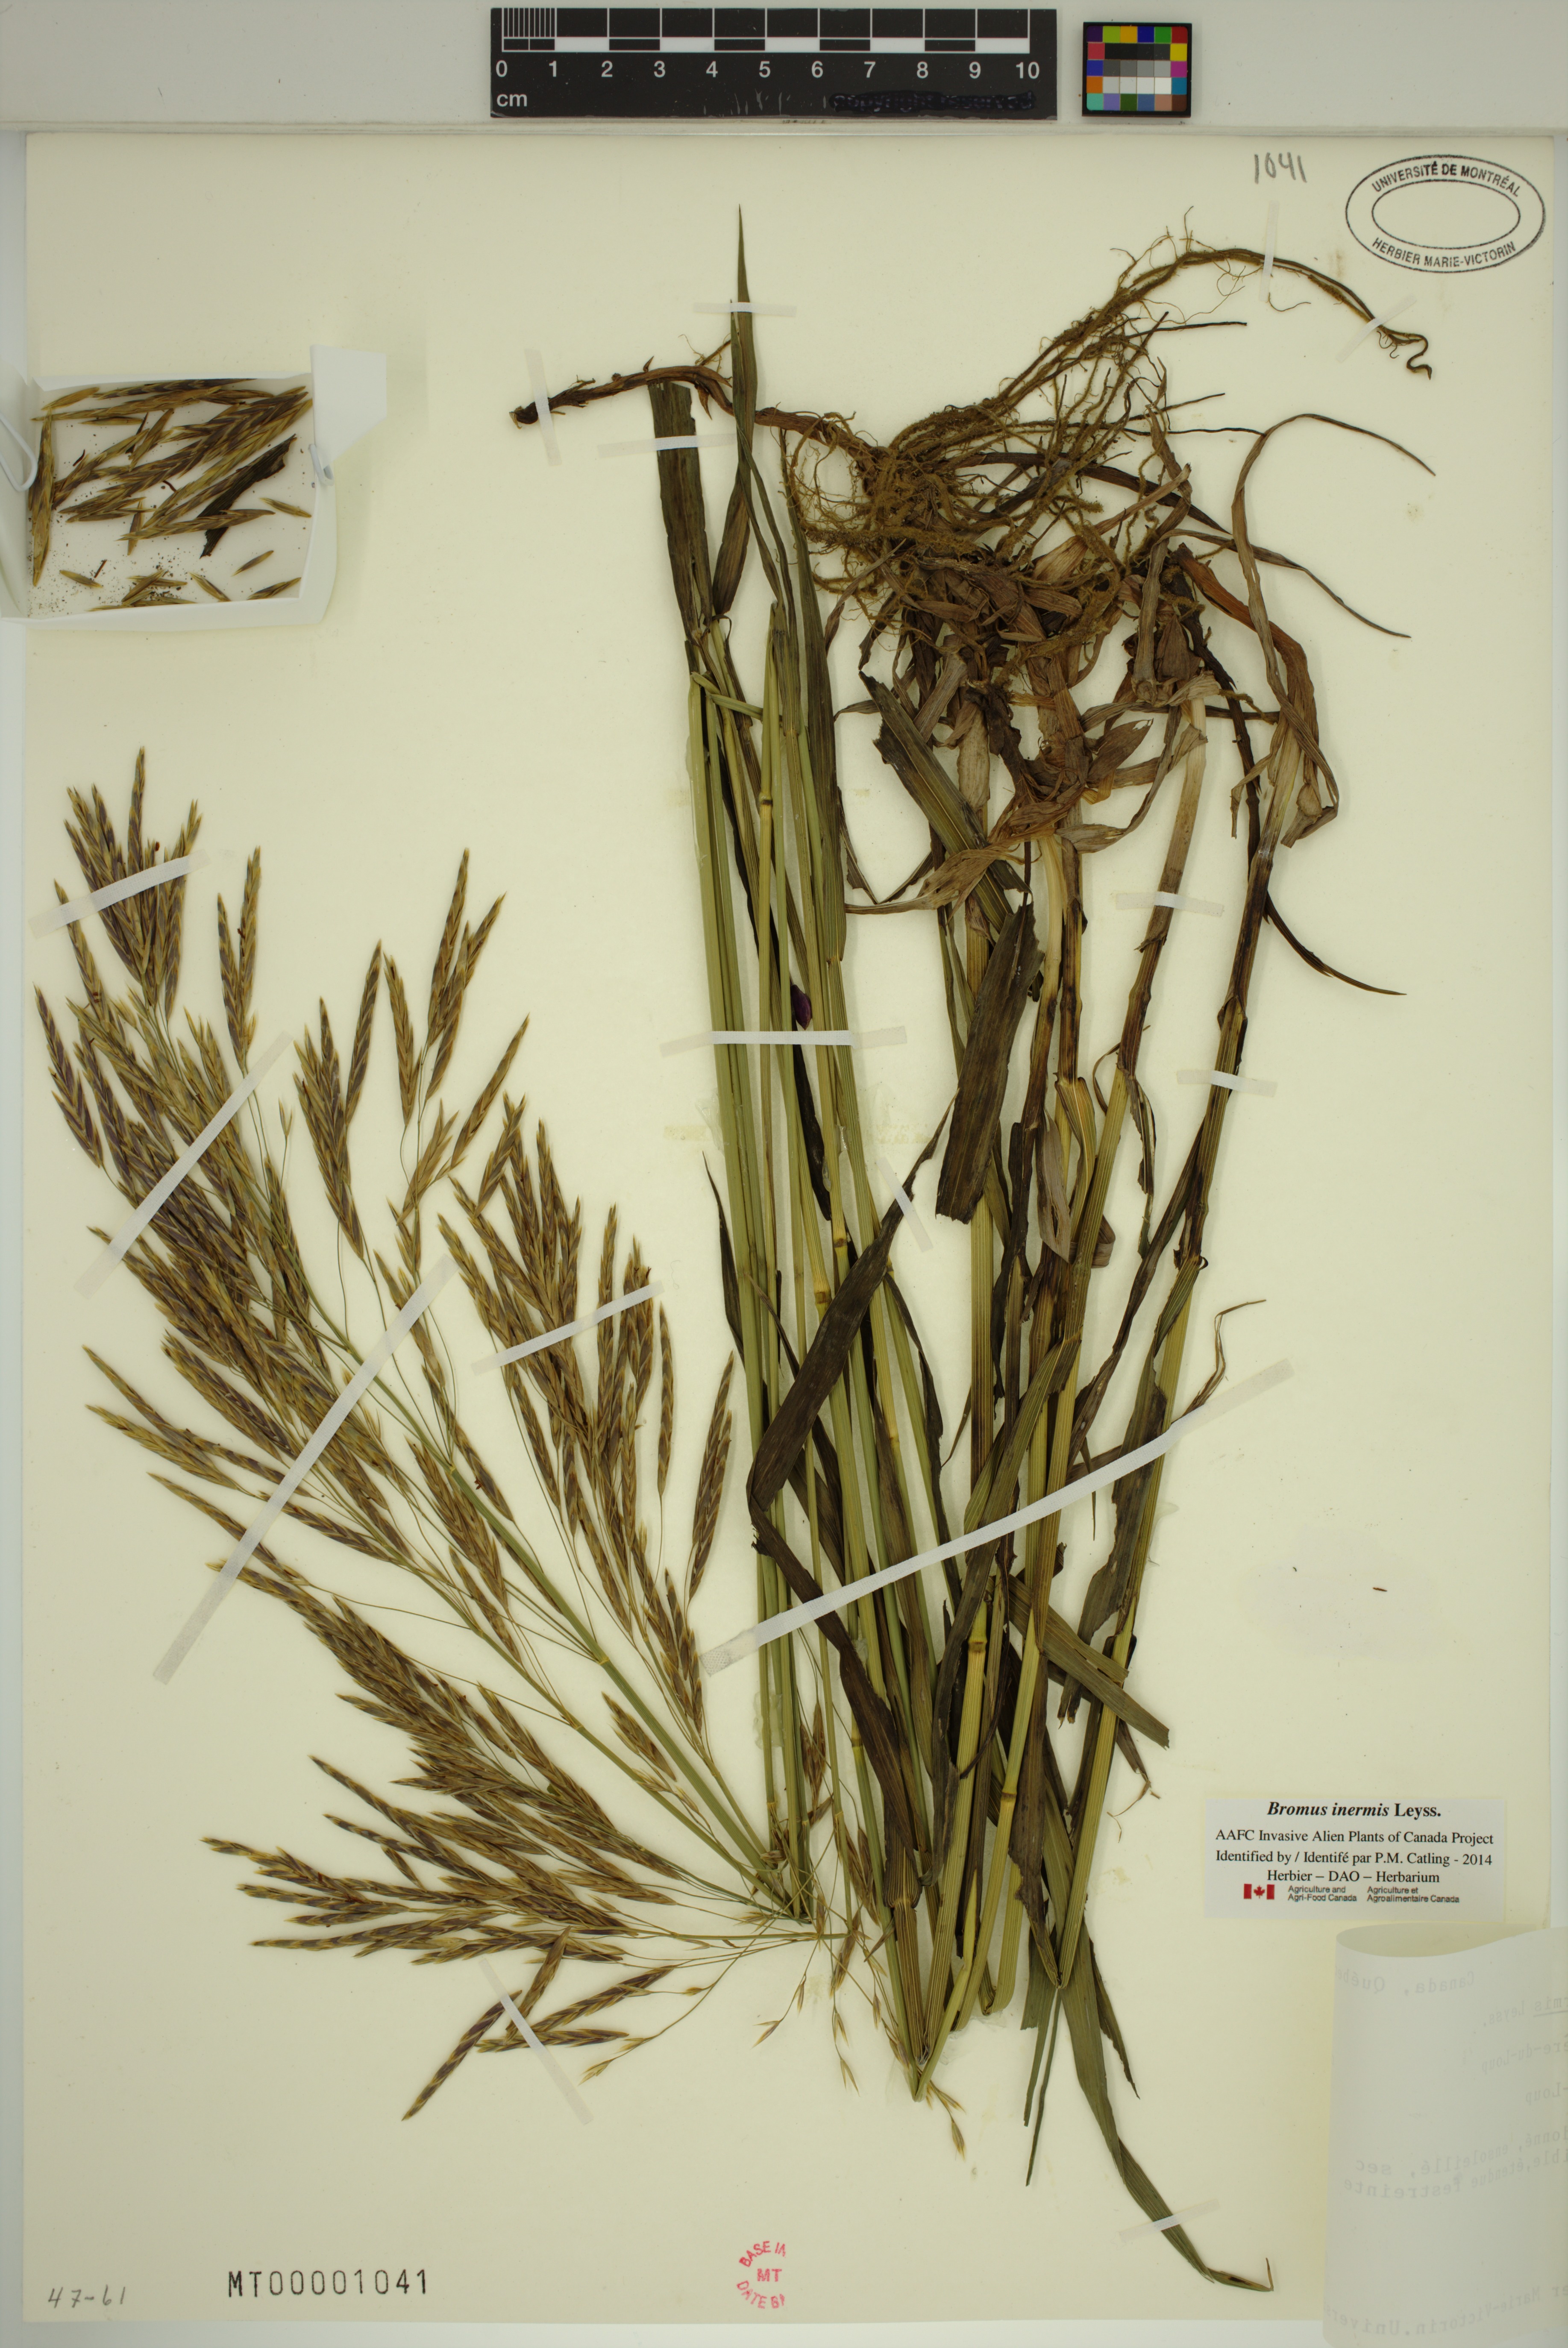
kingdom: Plantae
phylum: Tracheophyta
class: Liliopsida
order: Poales
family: Poaceae
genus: Bromus
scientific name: Bromus inermis
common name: Smooth brome
